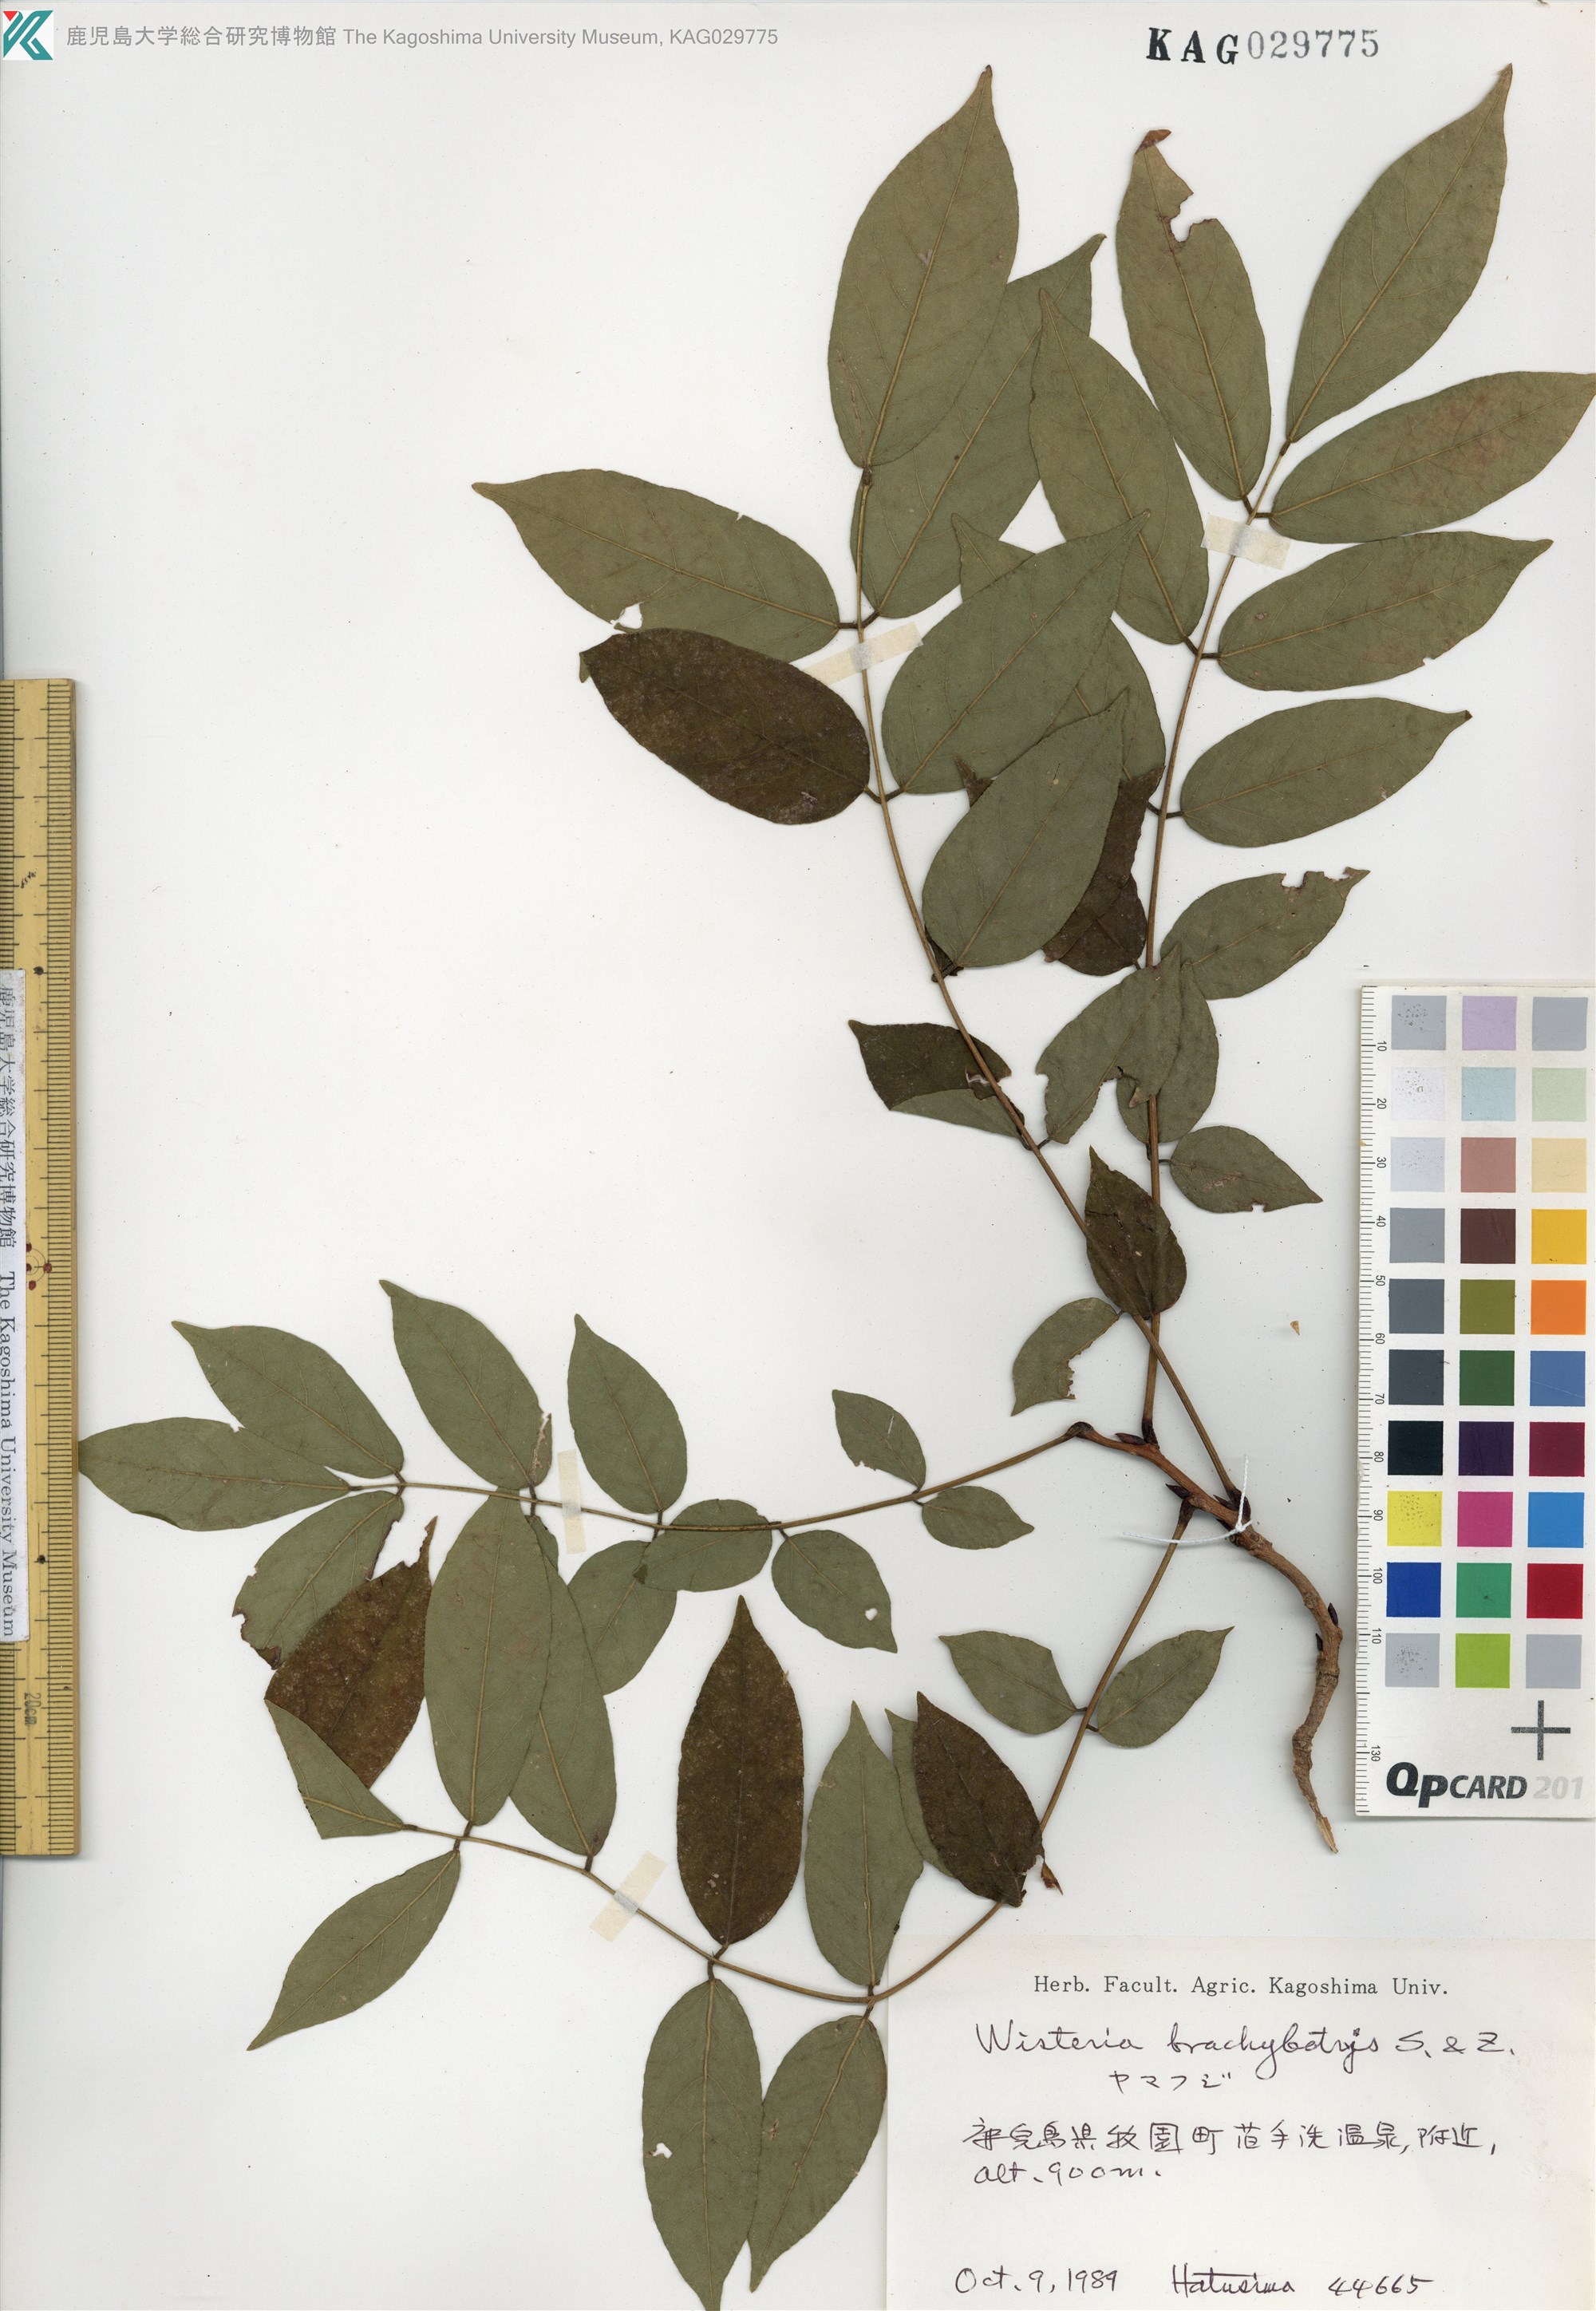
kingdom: Plantae
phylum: Tracheophyta
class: Magnoliopsida
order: Fabales
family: Fabaceae
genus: Wisteria
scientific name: Wisteria brachybotrys
